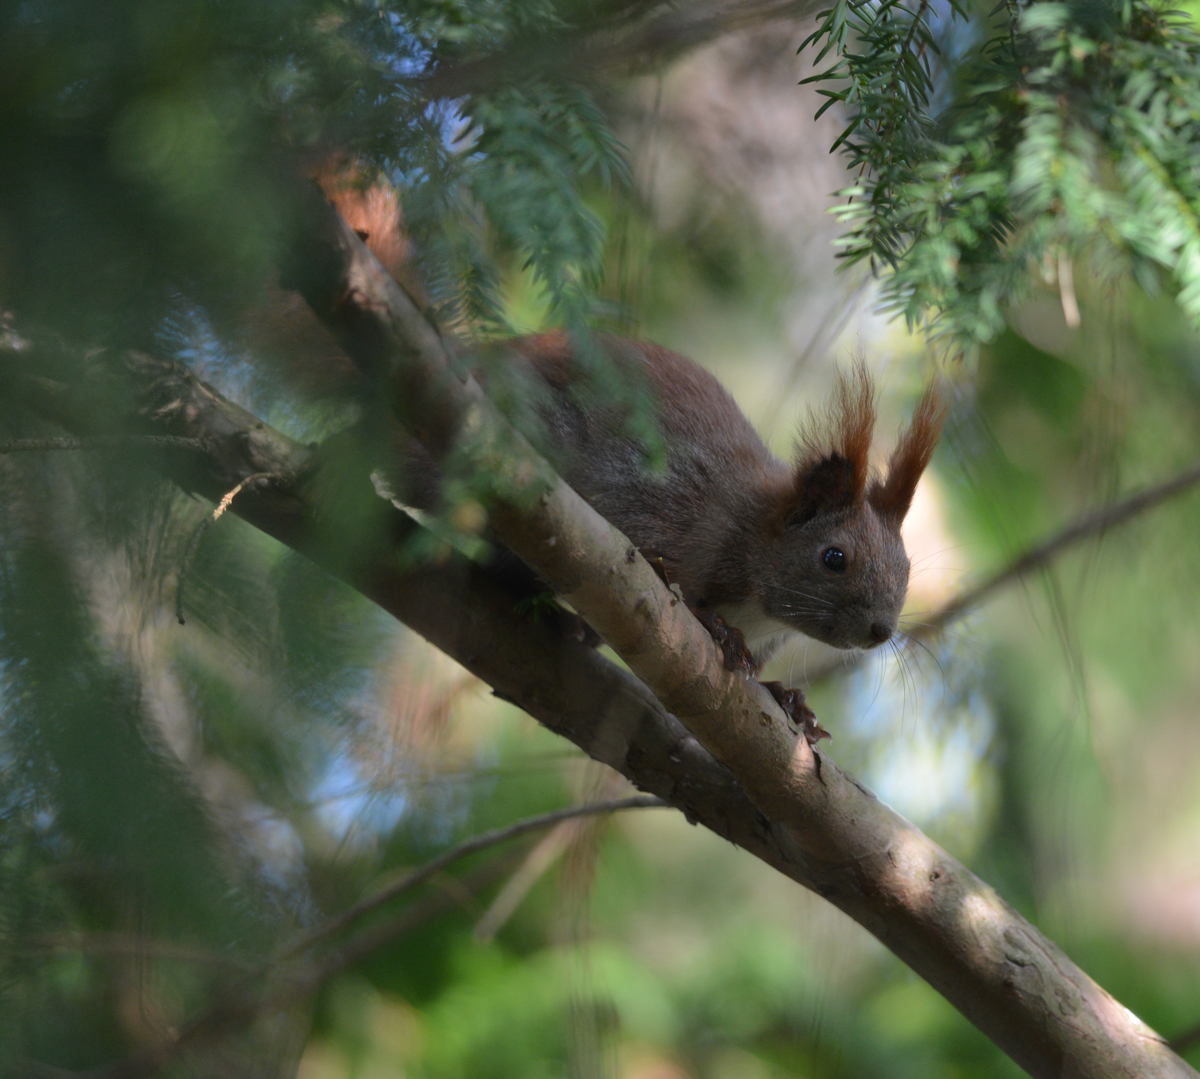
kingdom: Animalia
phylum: Chordata
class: Mammalia
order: Rodentia
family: Sciuridae
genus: Sciurus
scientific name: Sciurus vulgaris
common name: Eurasian red squirrel
